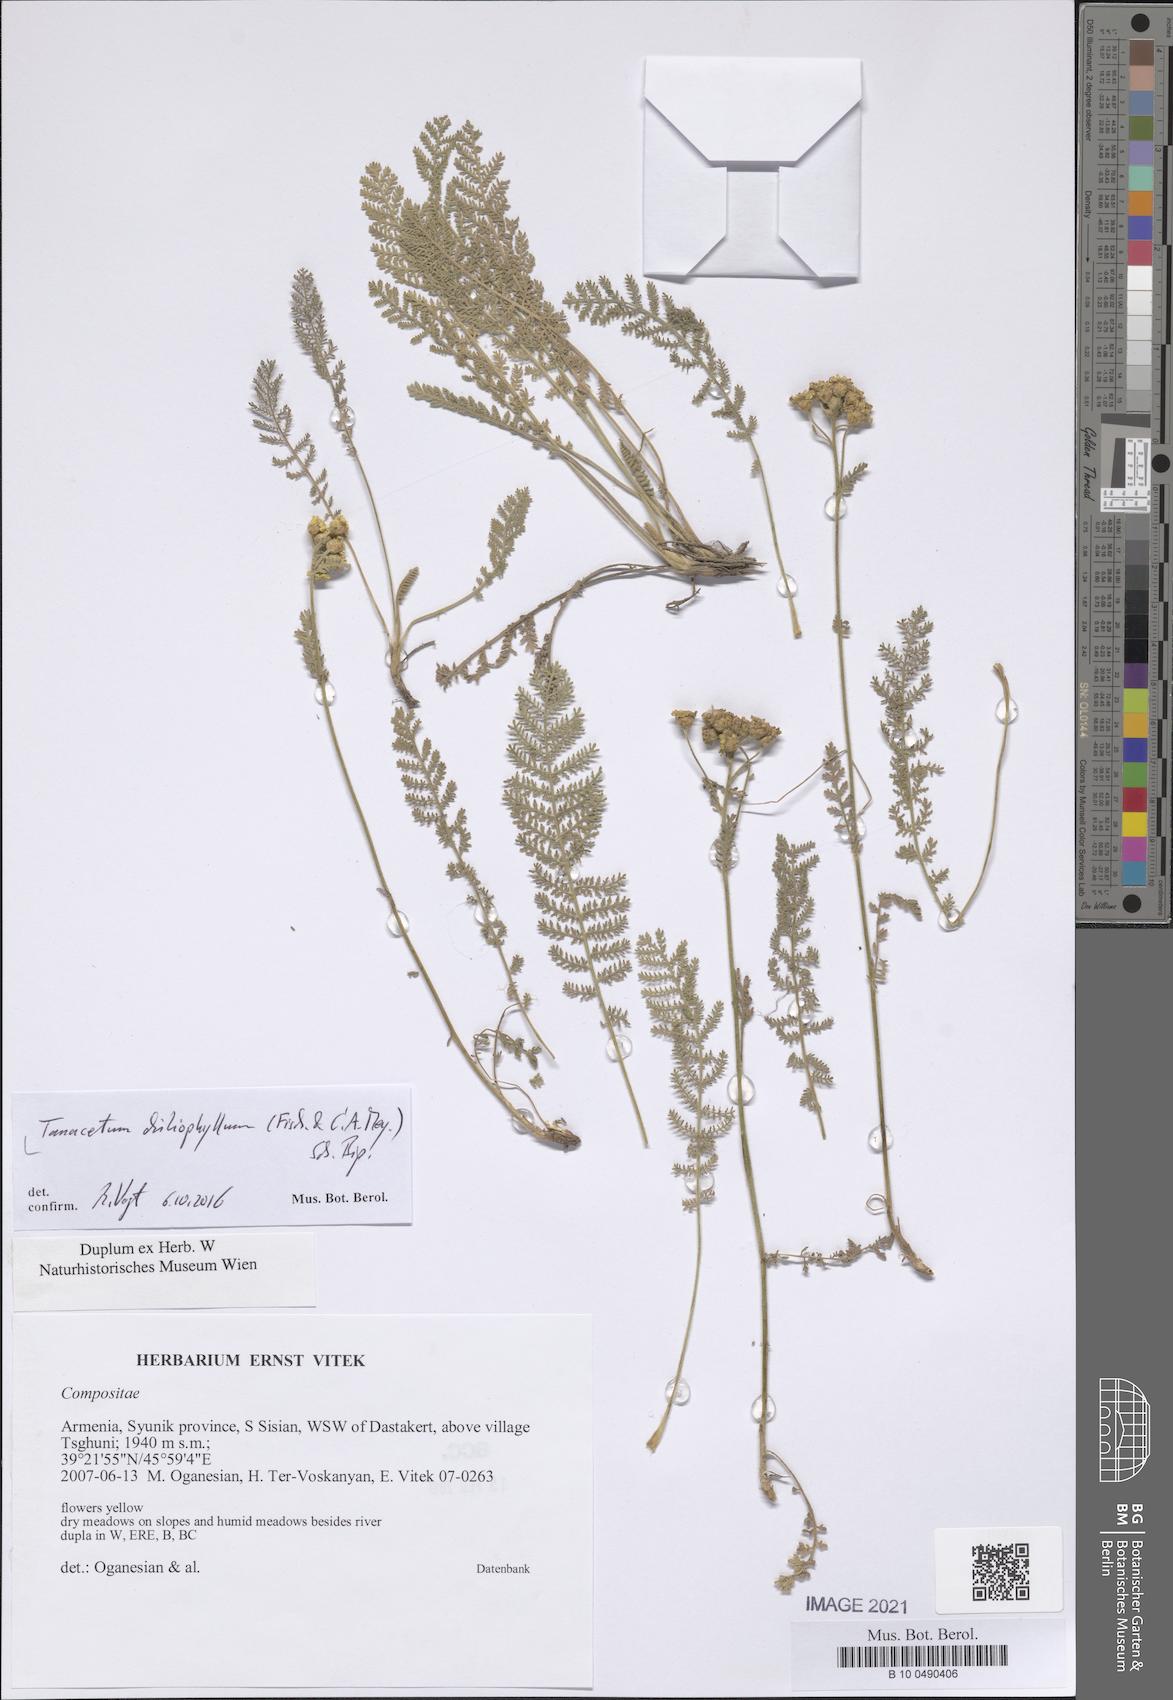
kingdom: Plantae
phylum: Tracheophyta
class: Magnoliopsida
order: Asterales
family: Asteraceae
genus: Tanacetum
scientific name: Tanacetum aureum
